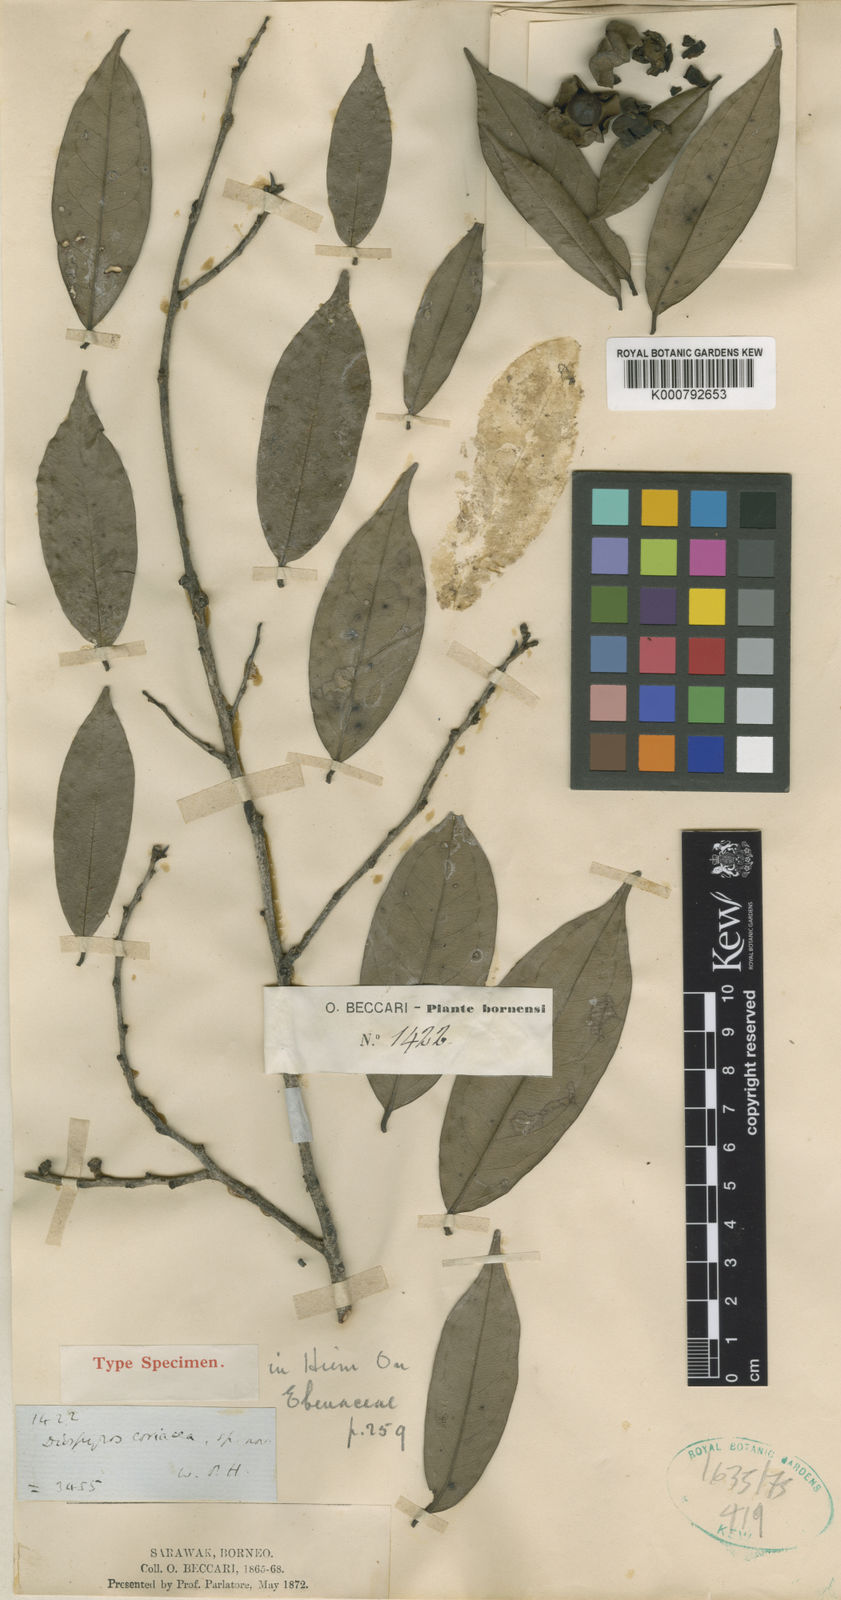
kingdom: Plantae
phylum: Tracheophyta
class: Magnoliopsida
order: Ericales
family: Ebenaceae
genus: Diospyros
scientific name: Diospyros coriacea
